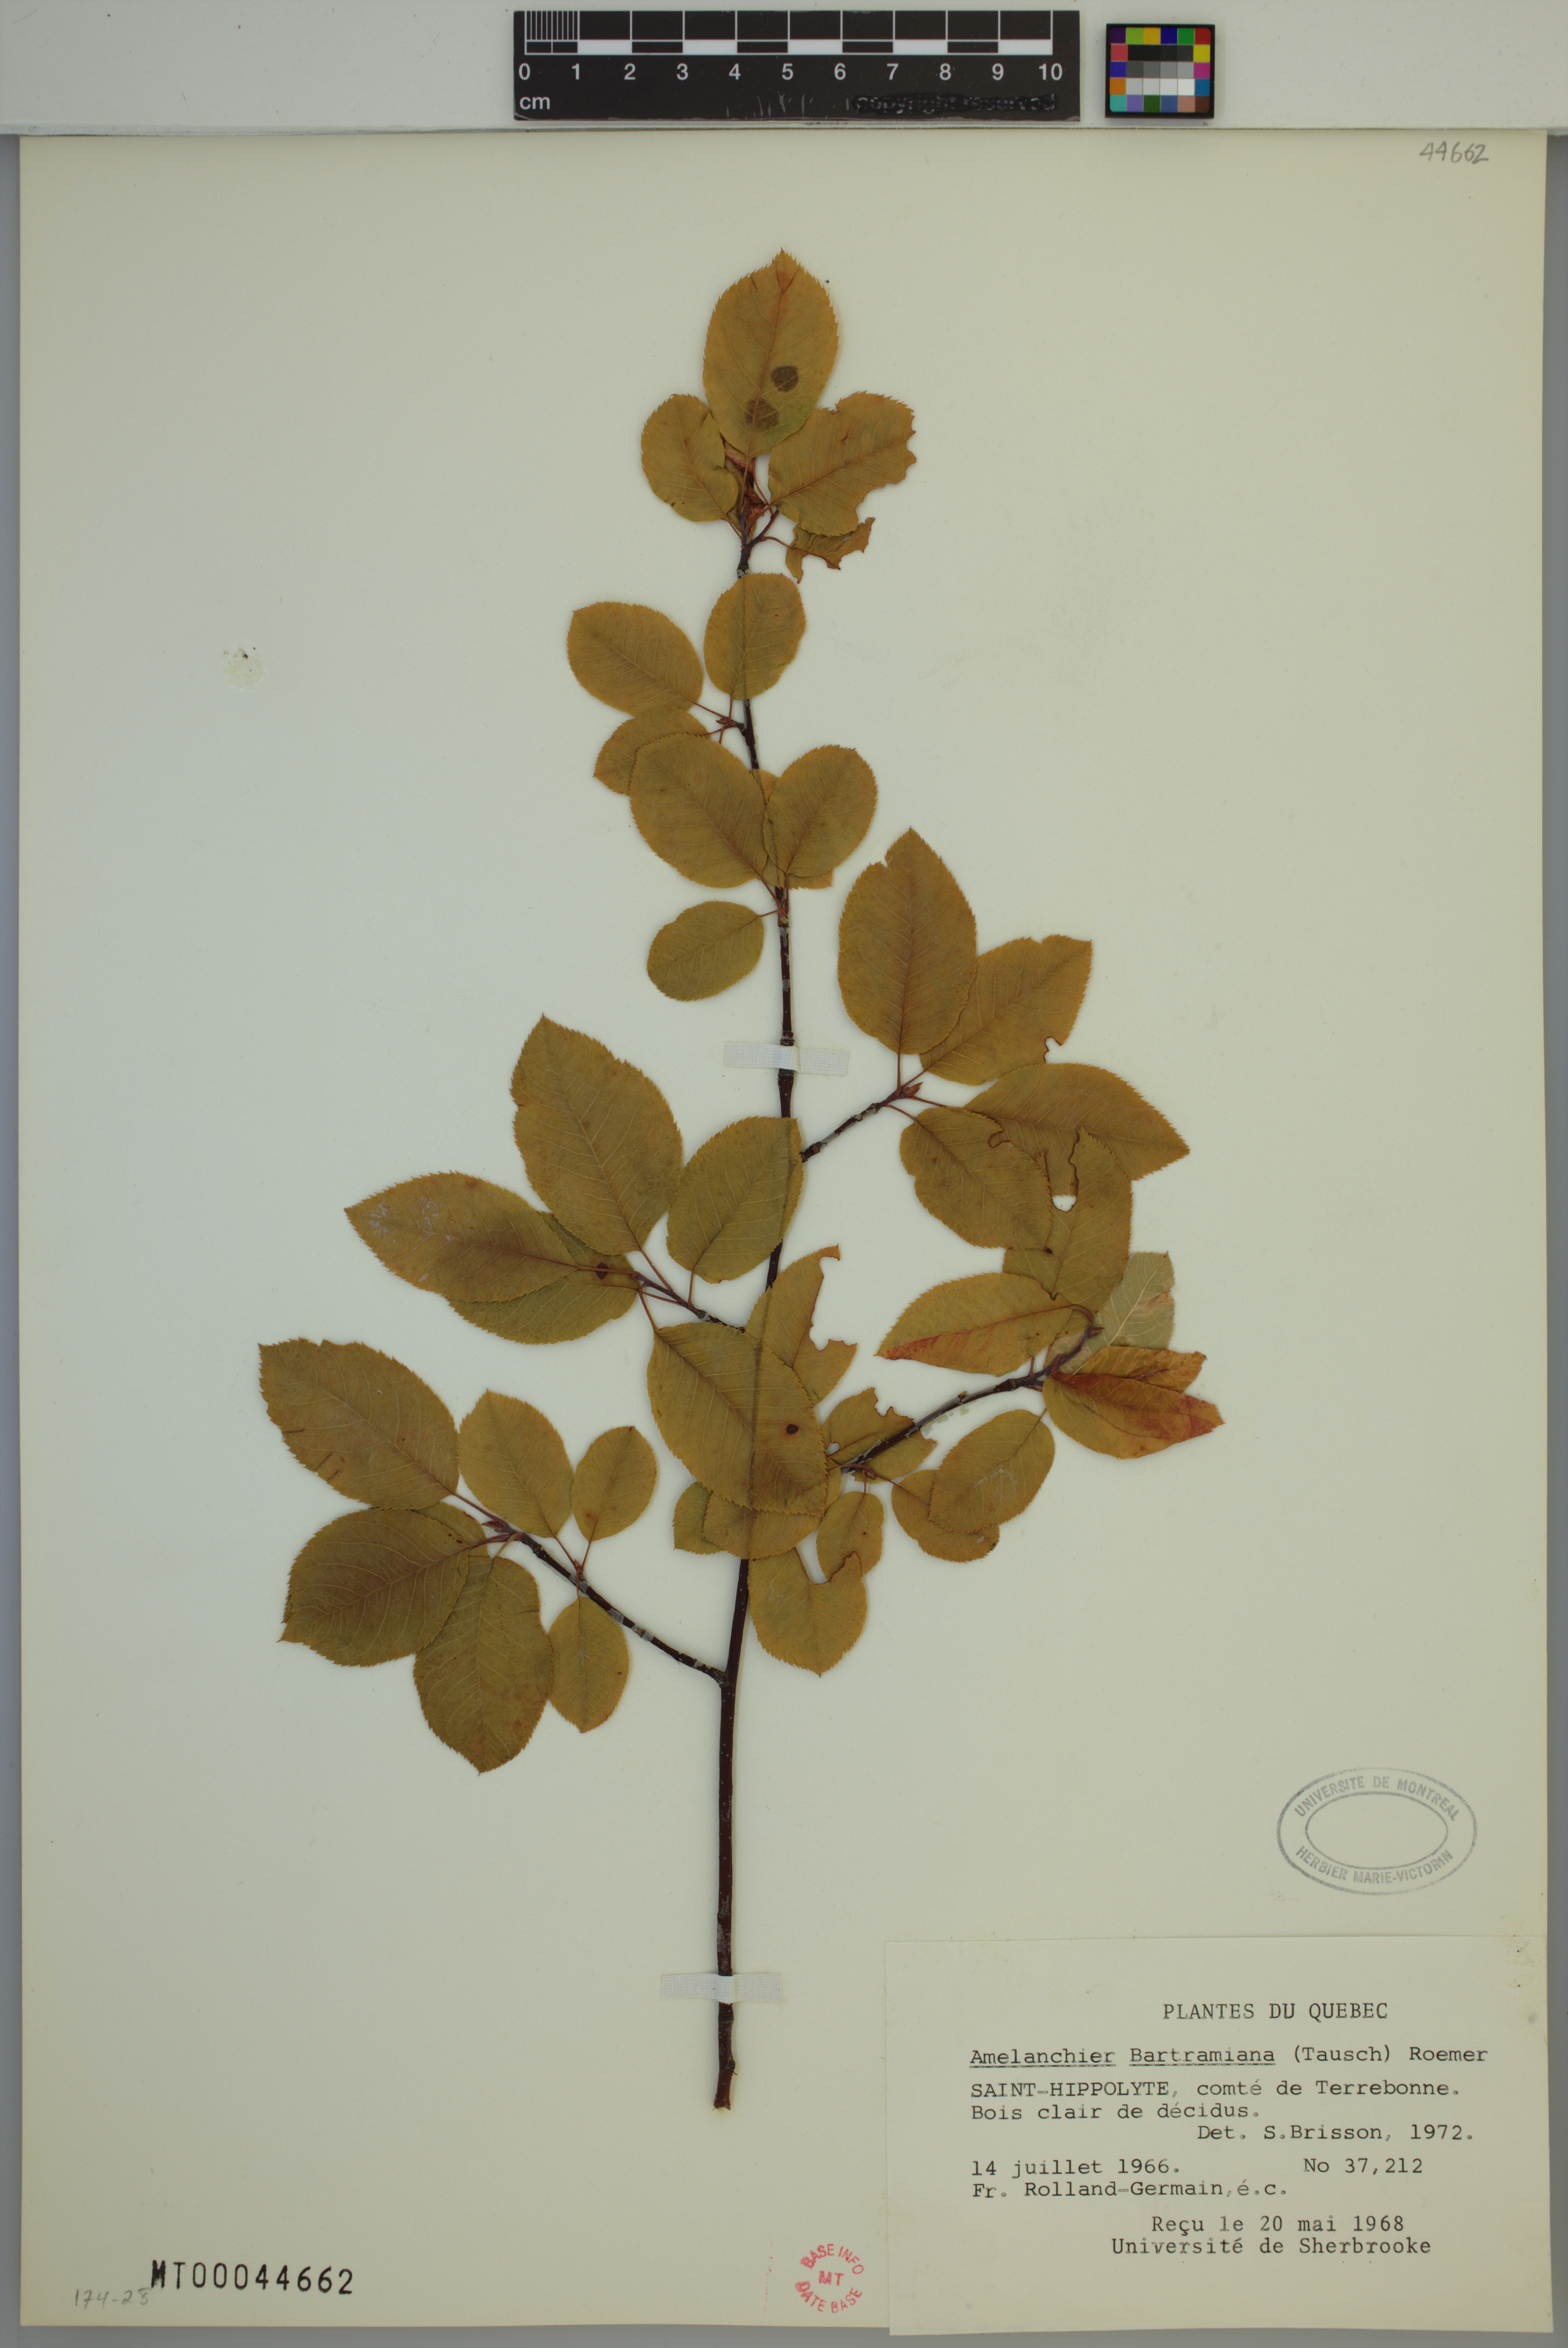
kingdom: Plantae
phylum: Tracheophyta
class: Magnoliopsida
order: Rosales
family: Rosaceae
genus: Amelanchier
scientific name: Amelanchier bartramiana
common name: Mountain serviceberry
